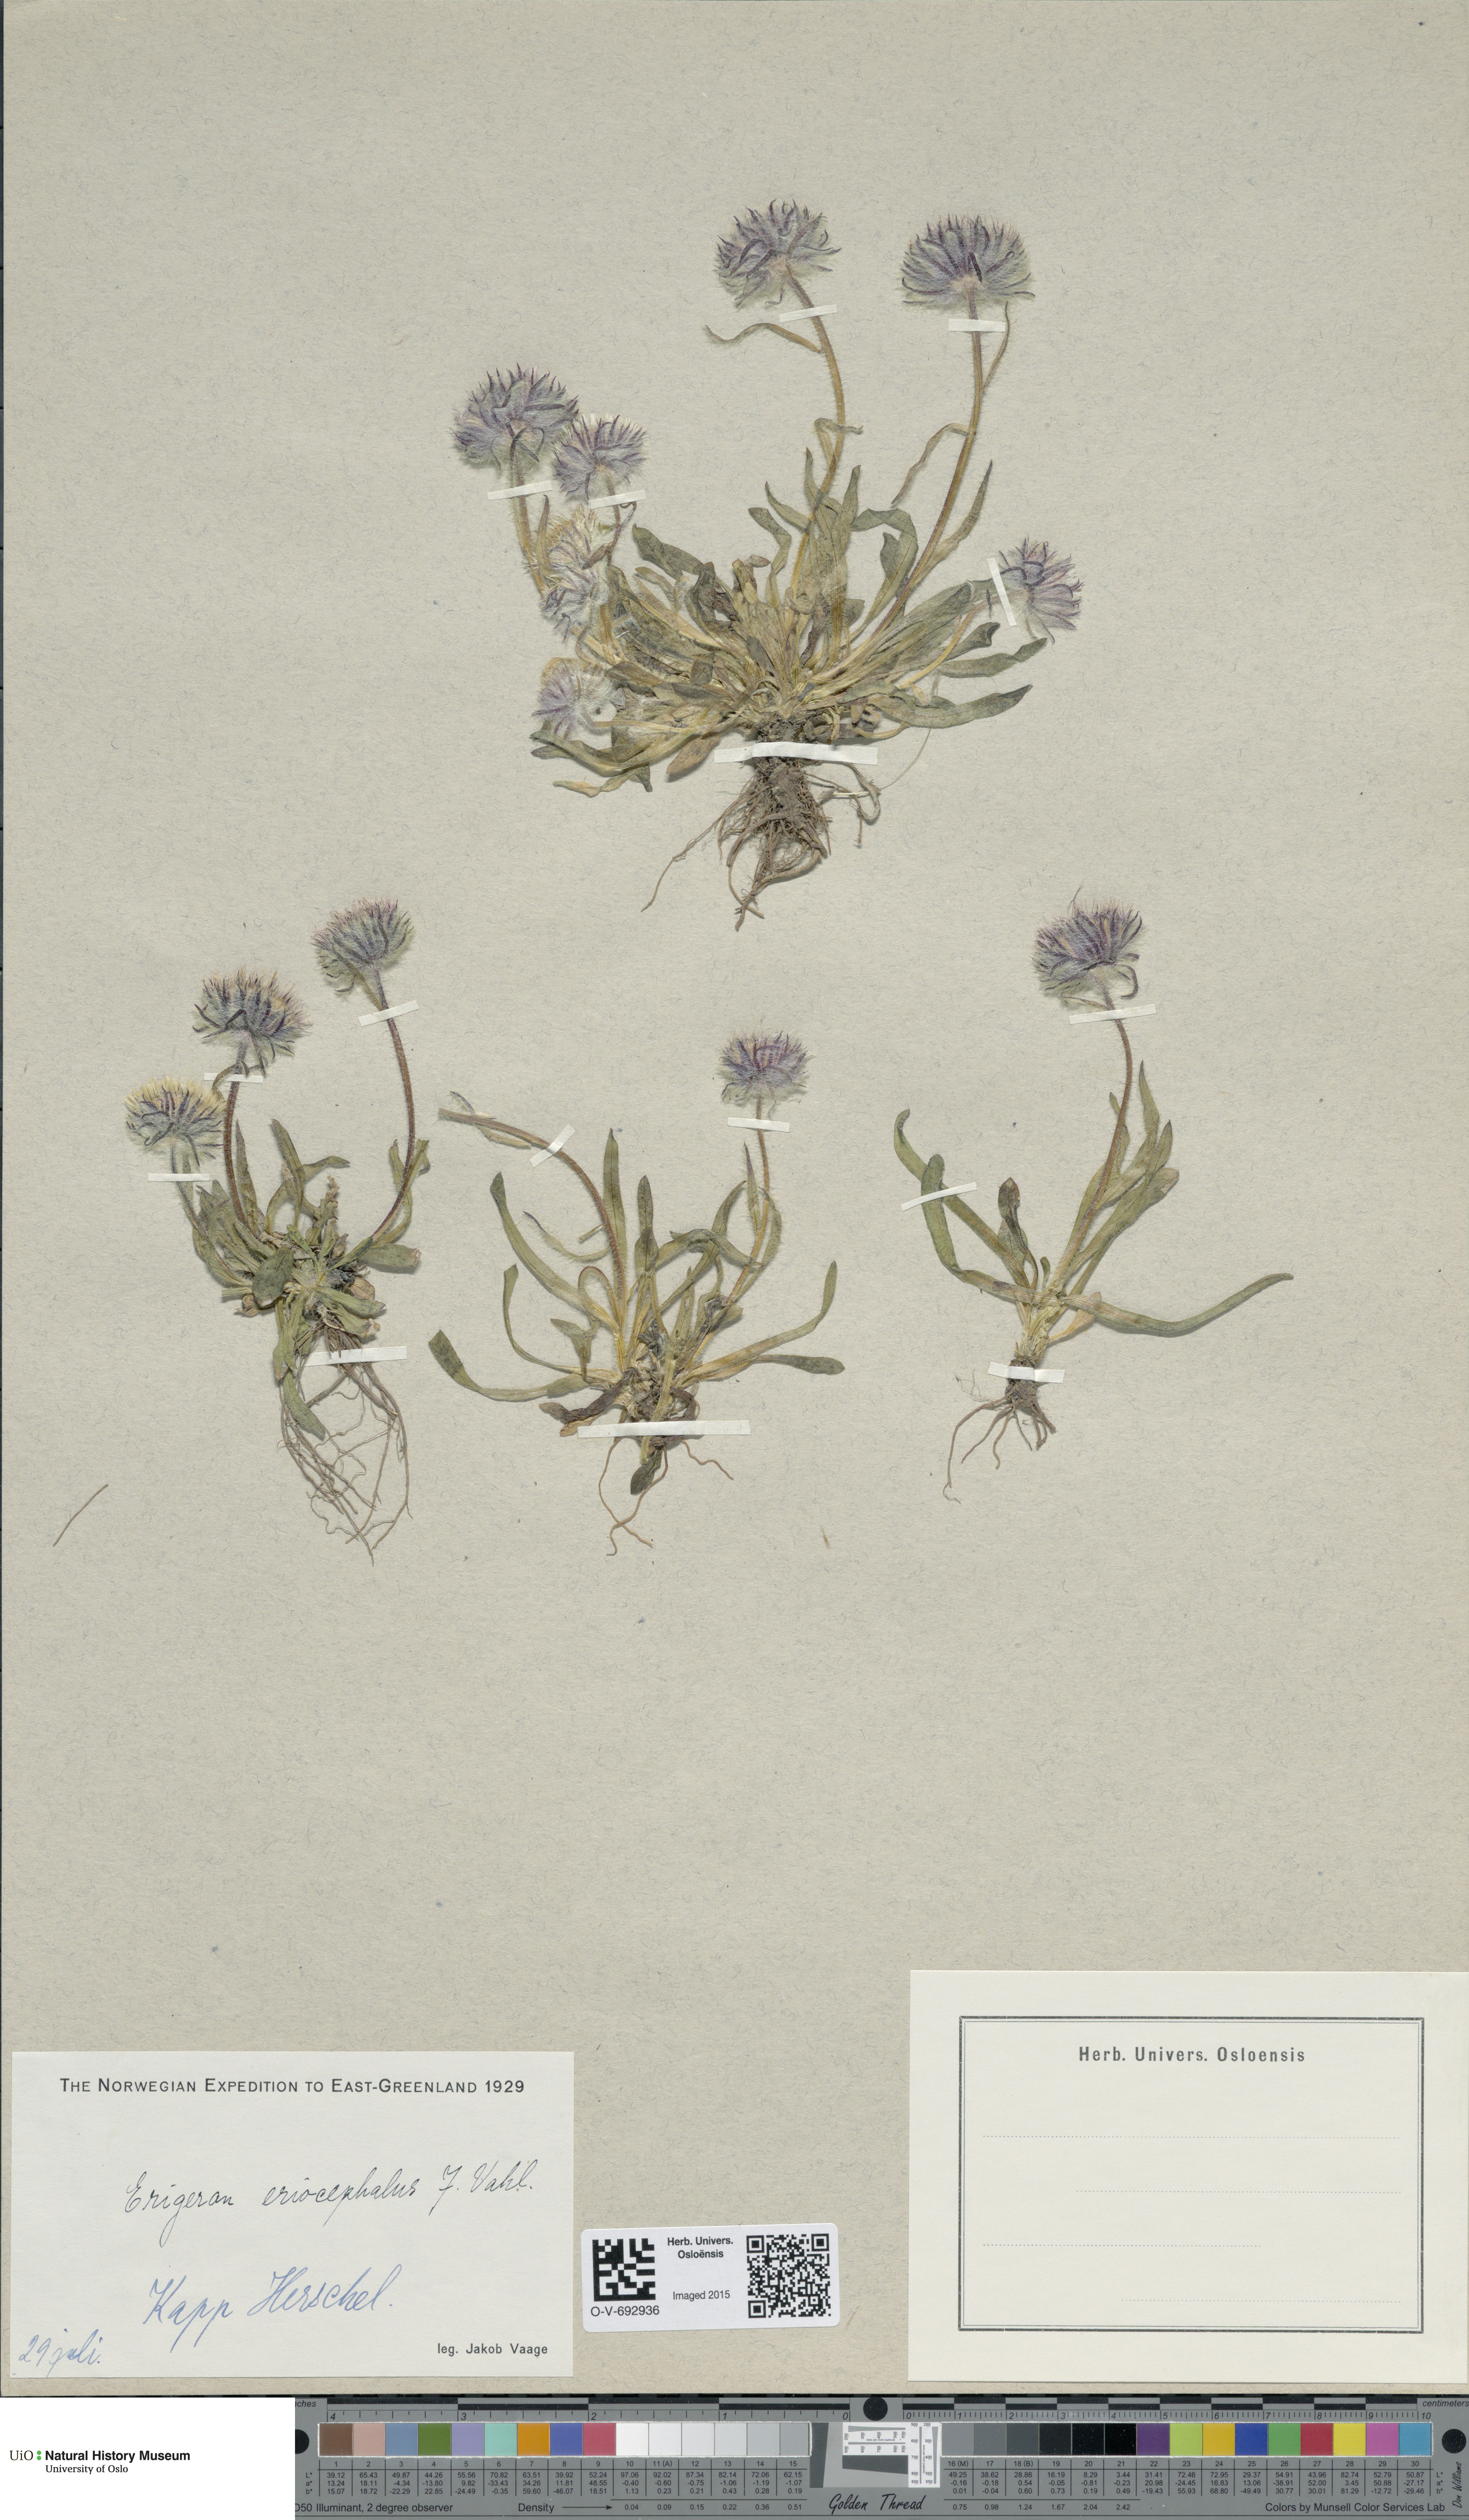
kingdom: Plantae
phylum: Tracheophyta
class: Magnoliopsida
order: Asterales
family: Asteraceae
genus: Erigeron
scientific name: Erigeron eriocephalus
